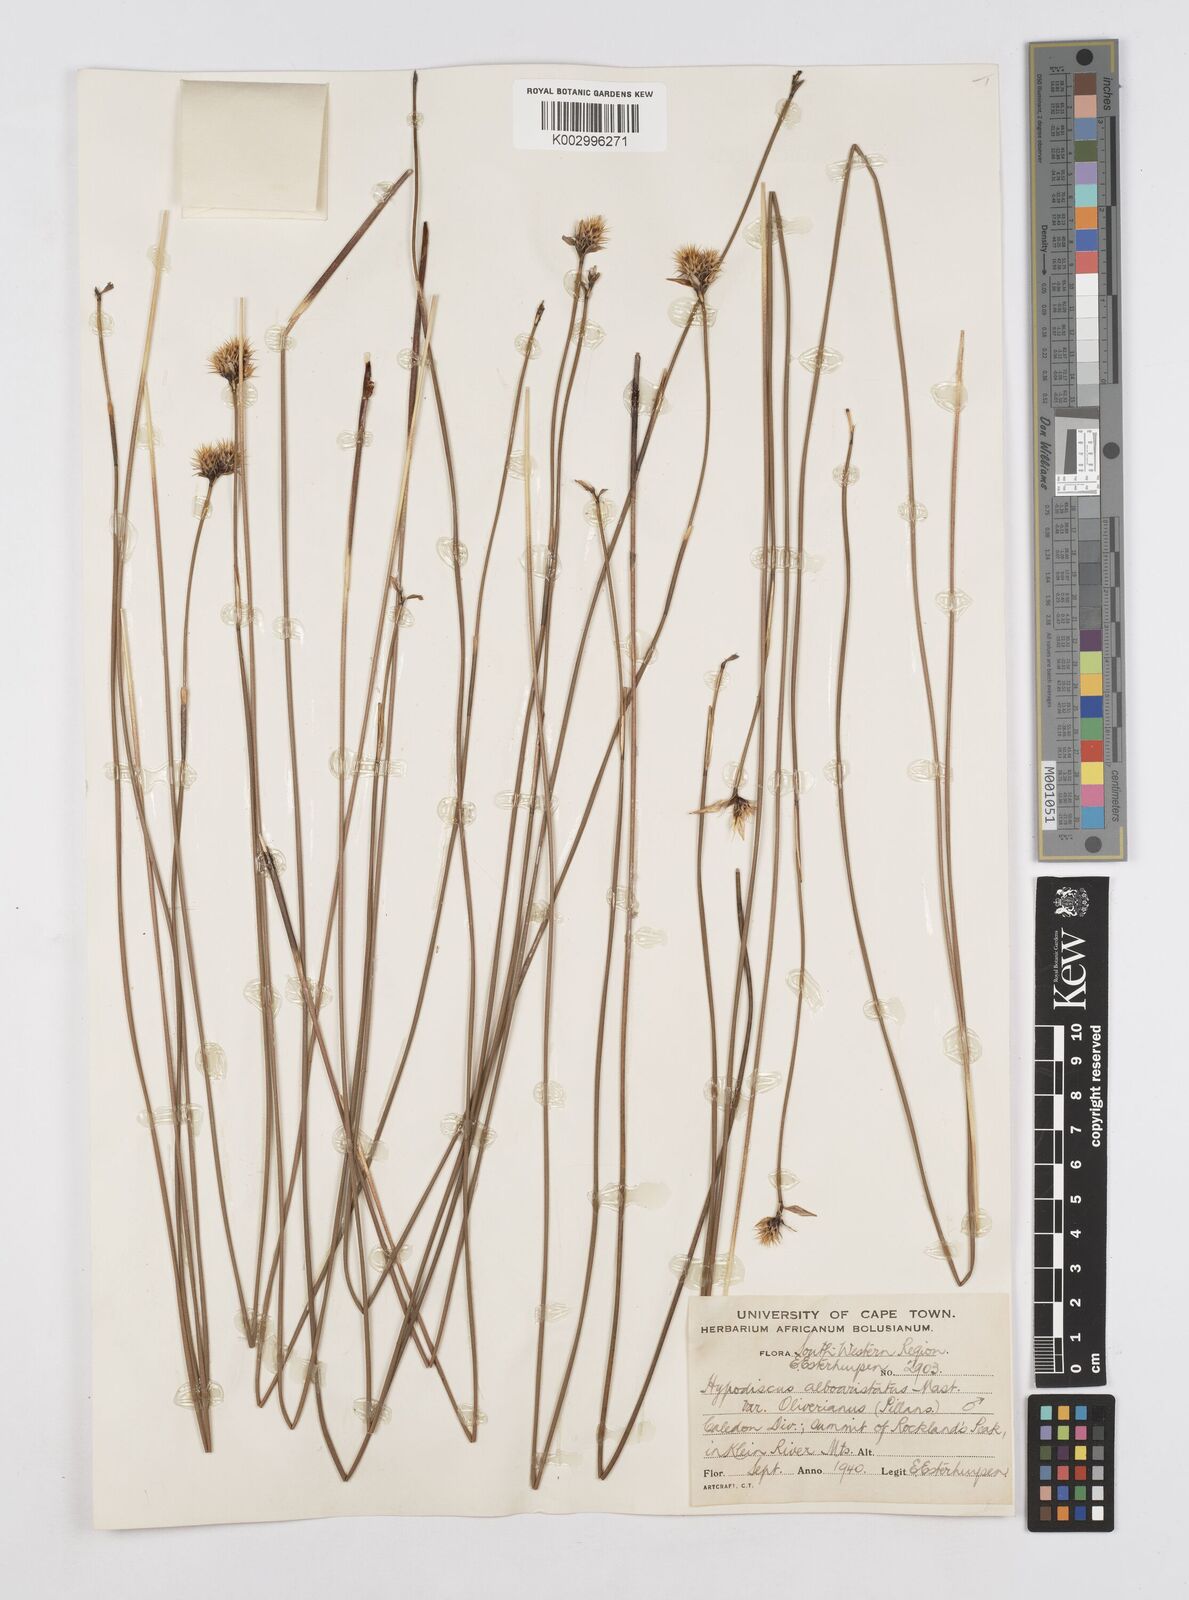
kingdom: Plantae
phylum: Tracheophyta
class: Liliopsida
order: Poales
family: Restionaceae
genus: Hypodiscus
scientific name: Hypodiscus alboaristatus
